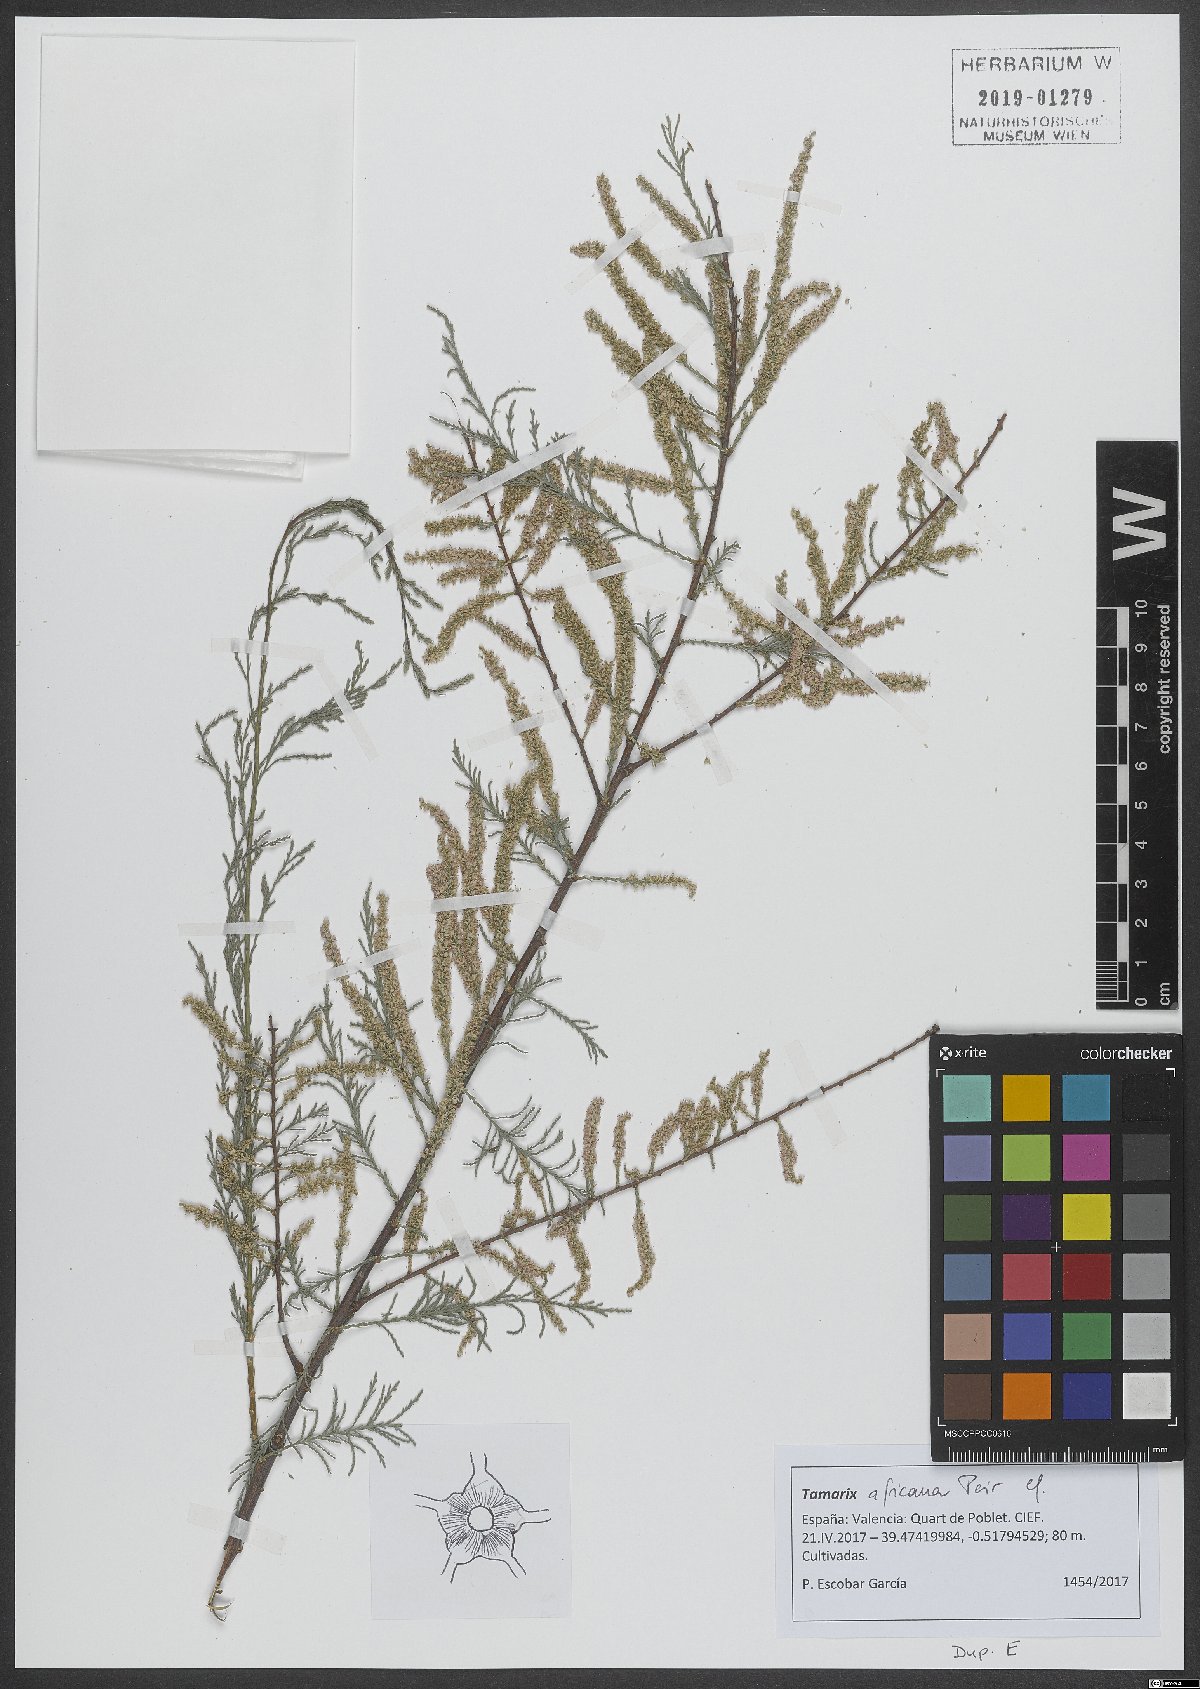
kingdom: Plantae
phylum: Tracheophyta
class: Magnoliopsida
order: Caryophyllales
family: Tamaricaceae
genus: Tamarix
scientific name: Tamarix africana
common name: African tamarisk
